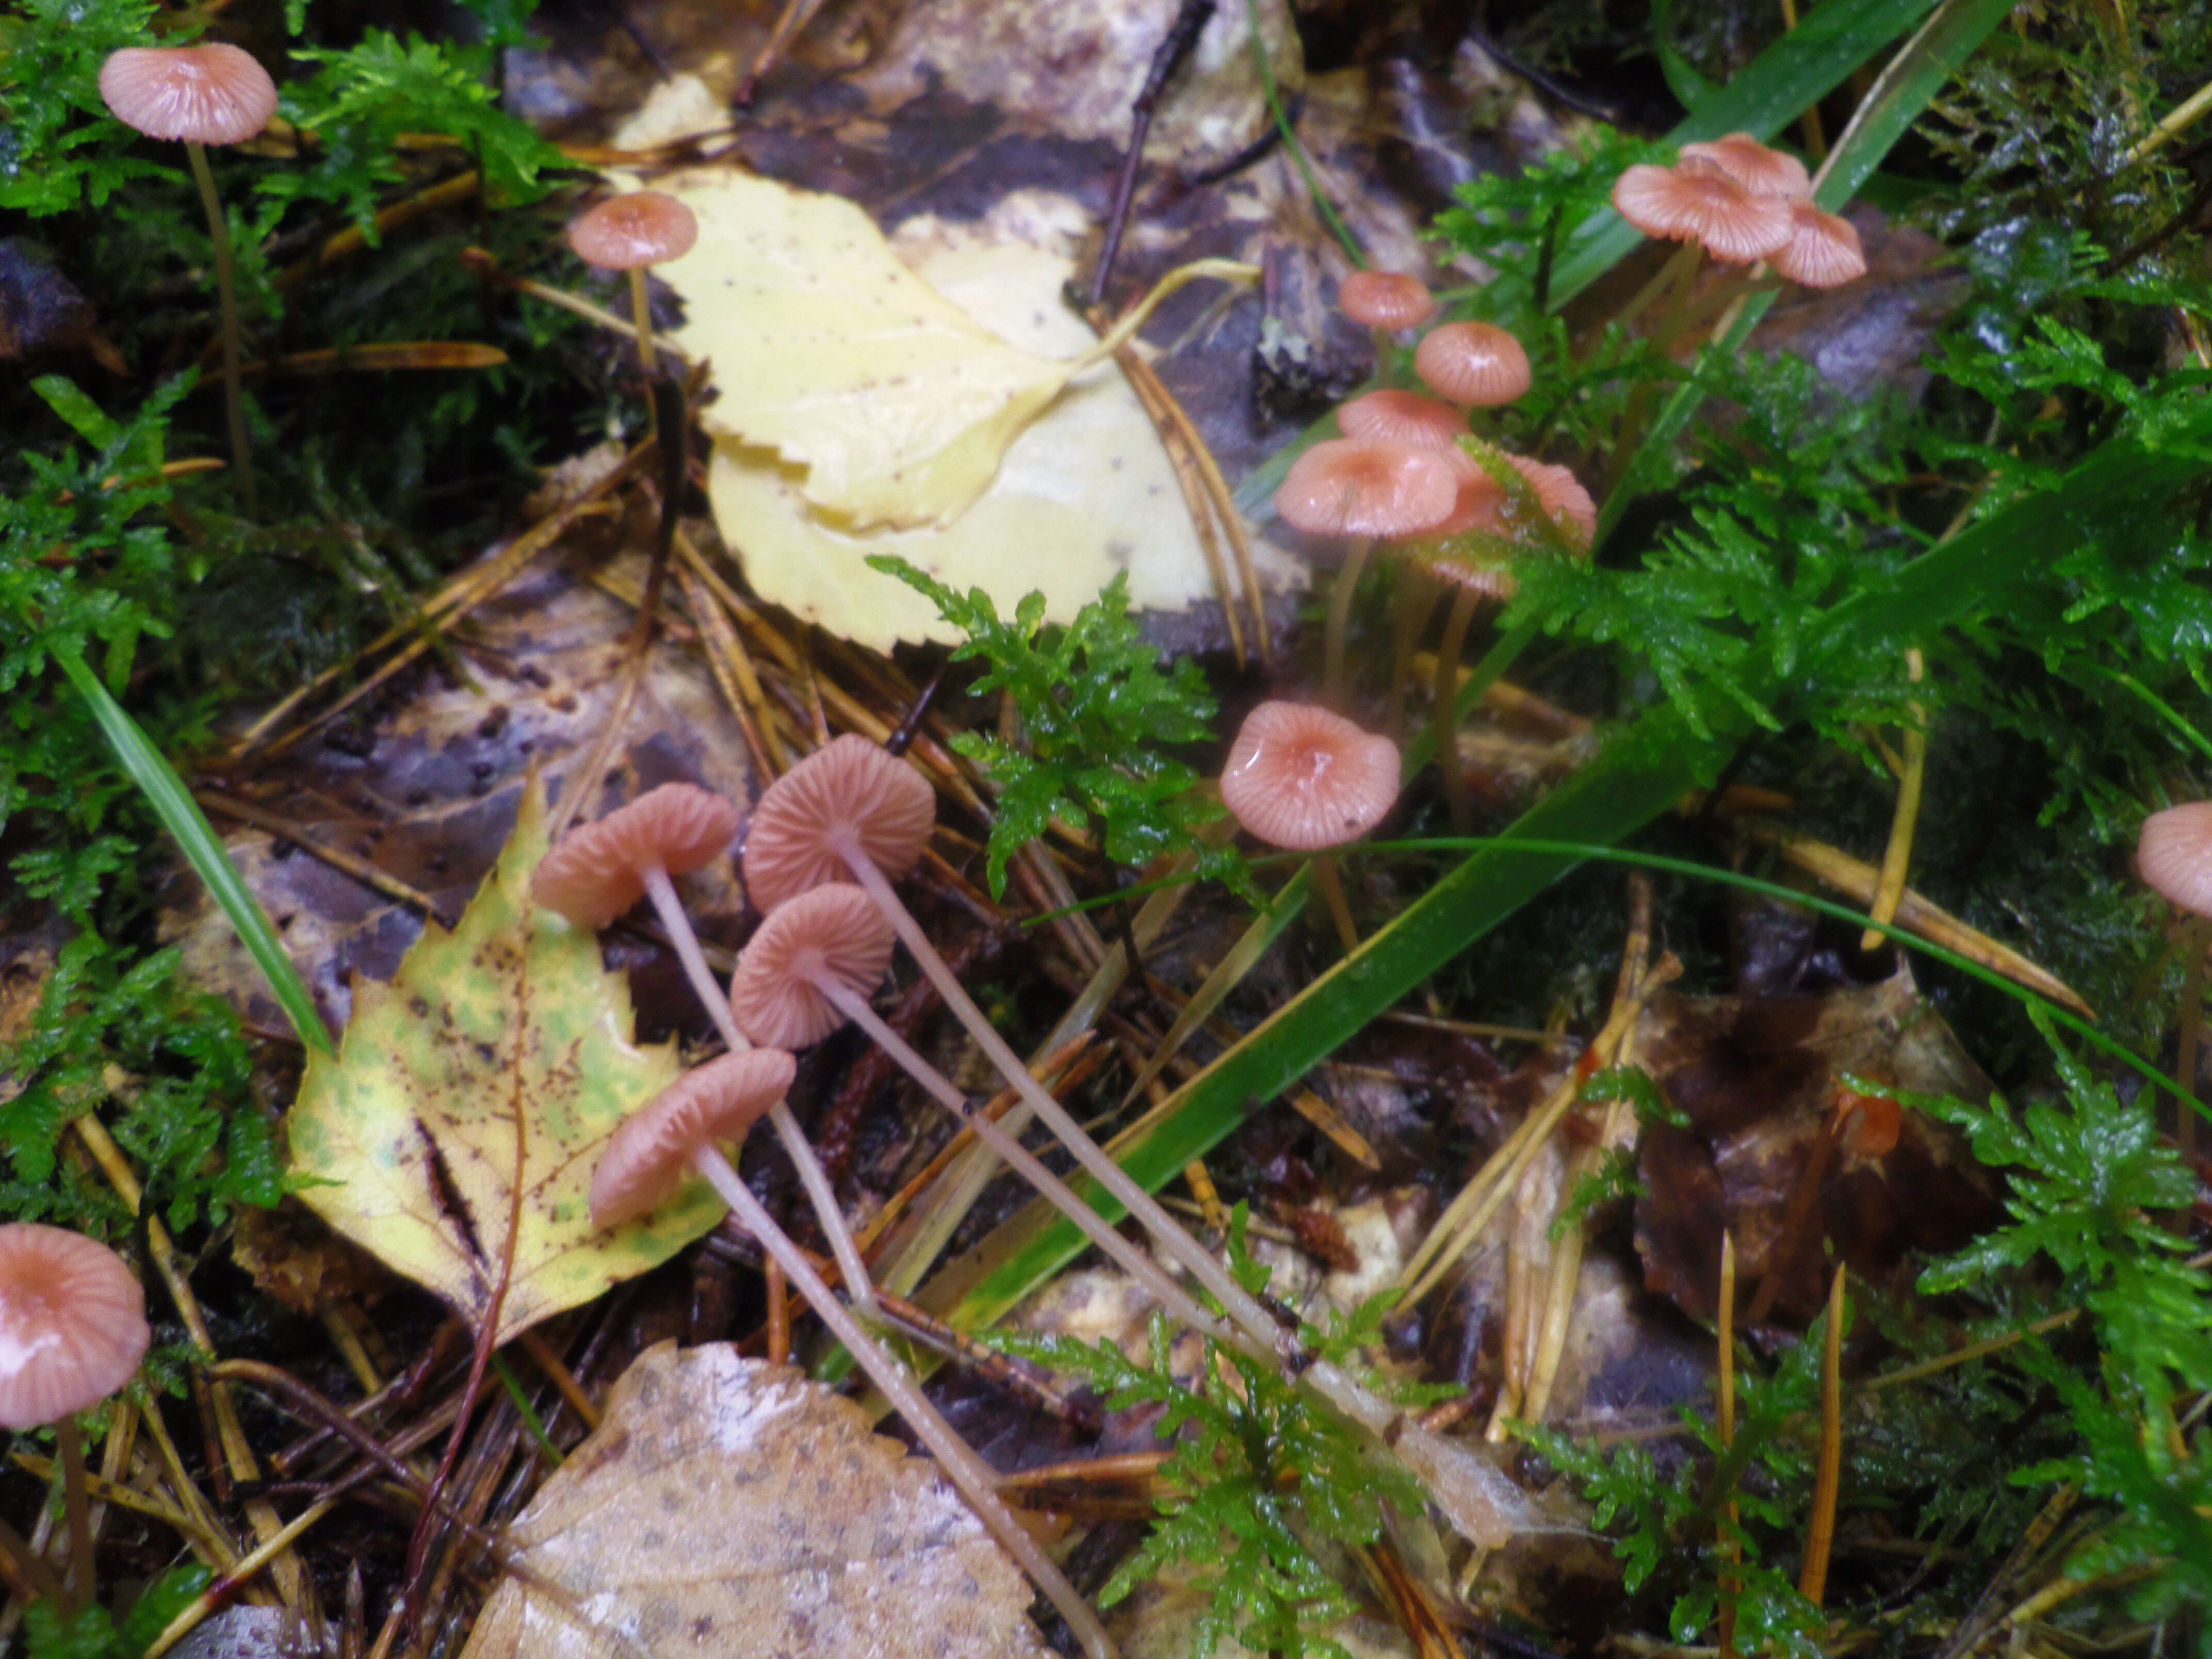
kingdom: Fungi
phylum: Basidiomycota
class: Agaricomycetes
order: Agaricales
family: Mycenaceae
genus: Mycena
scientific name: Mycena rosella
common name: Pink bonnet
